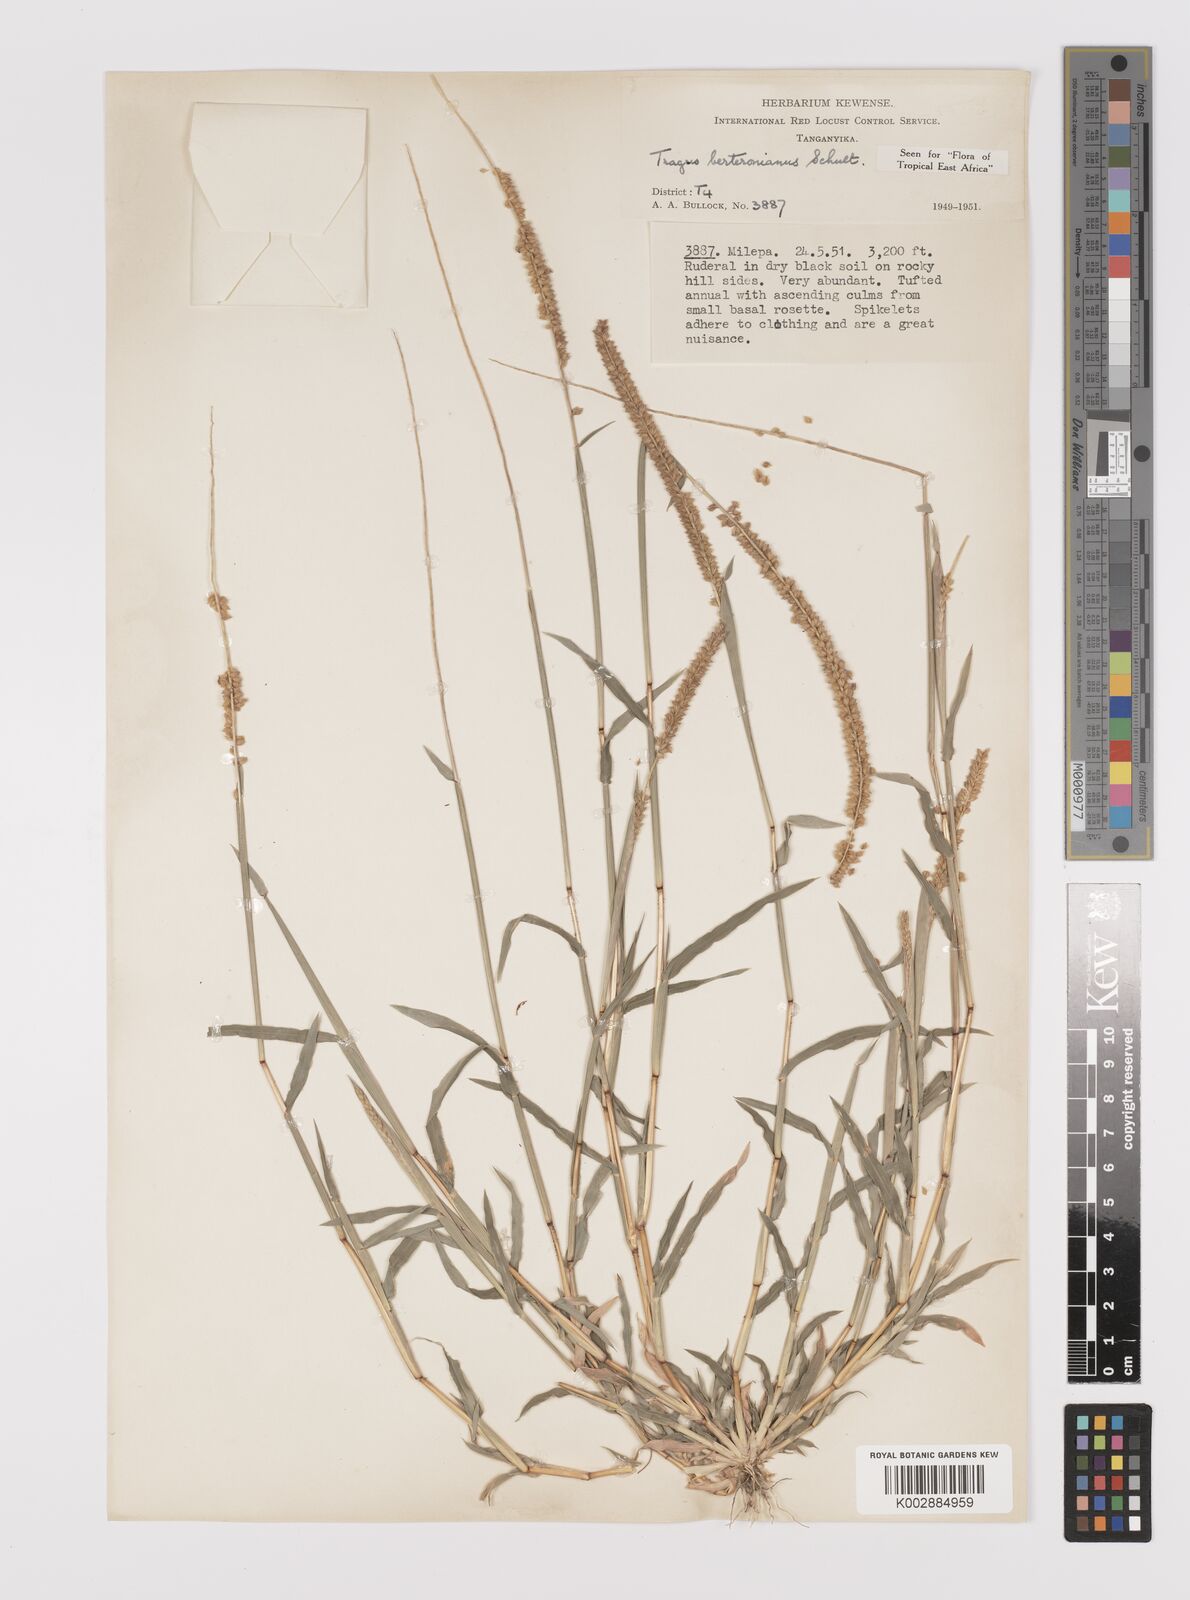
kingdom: Plantae
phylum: Tracheophyta
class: Liliopsida
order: Poales
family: Poaceae
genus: Tragus
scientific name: Tragus berteronianus
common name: African bur-grass
